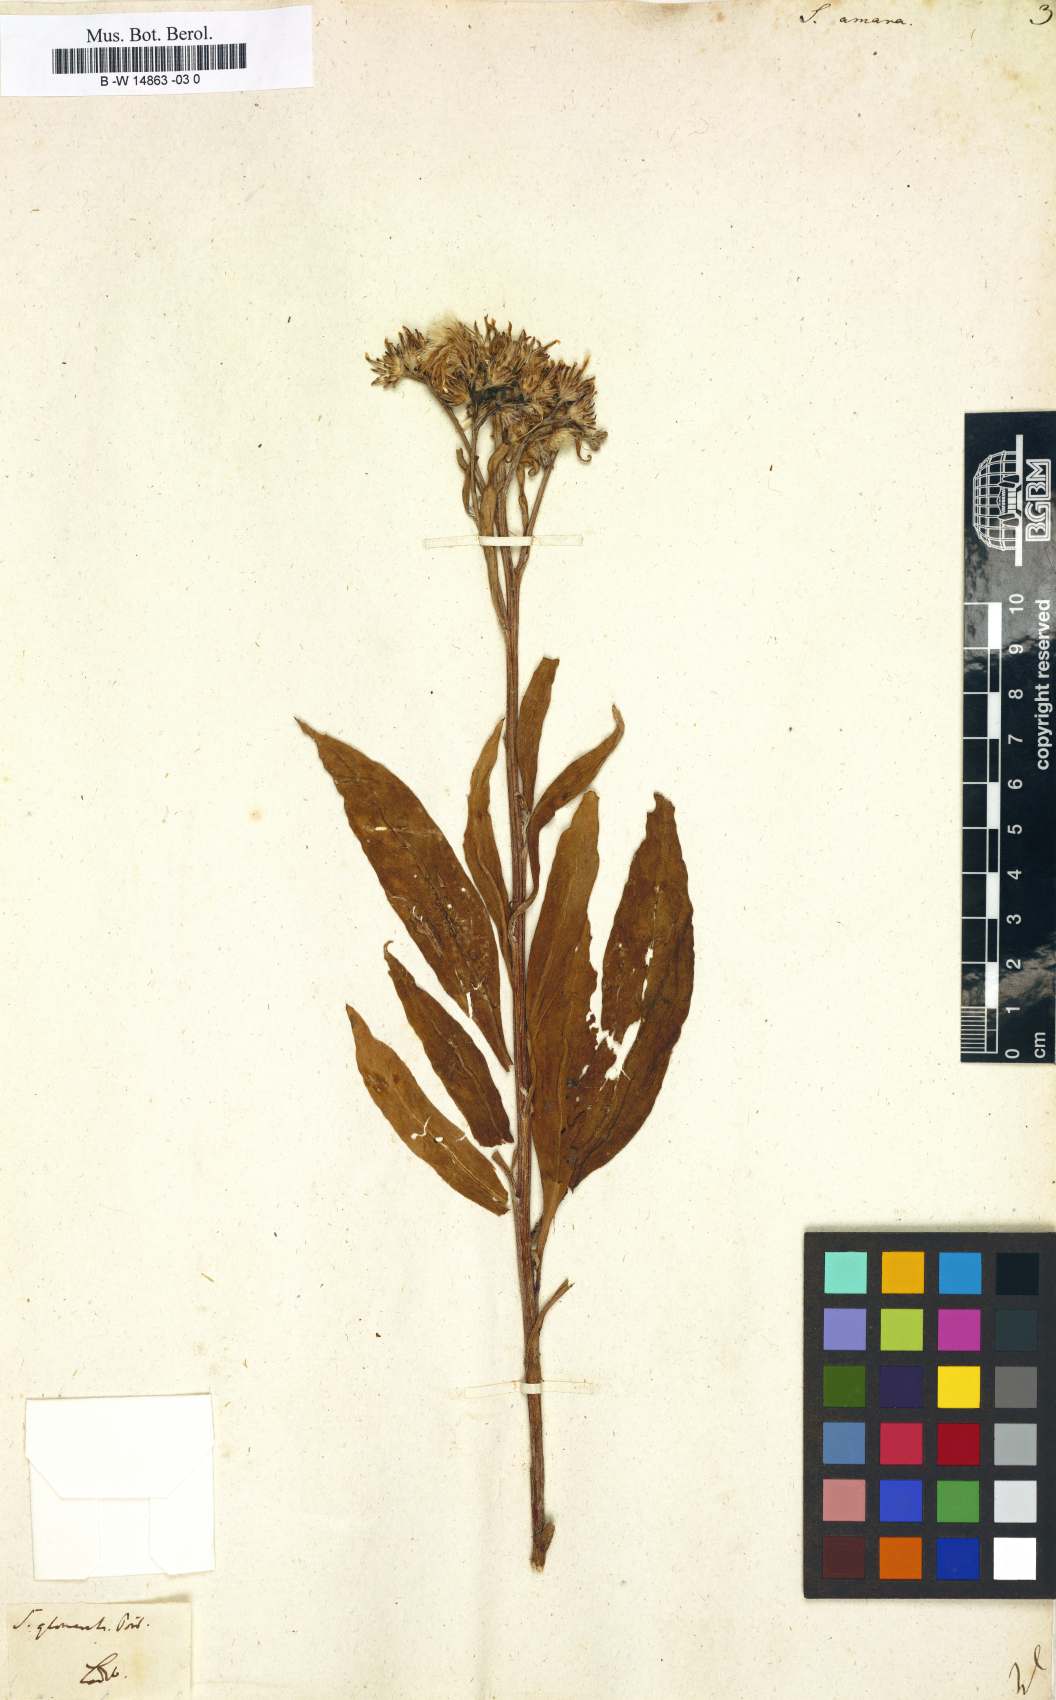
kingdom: Plantae
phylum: Tracheophyta
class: Magnoliopsida
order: Asterales
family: Asteraceae
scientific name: Asteraceae
